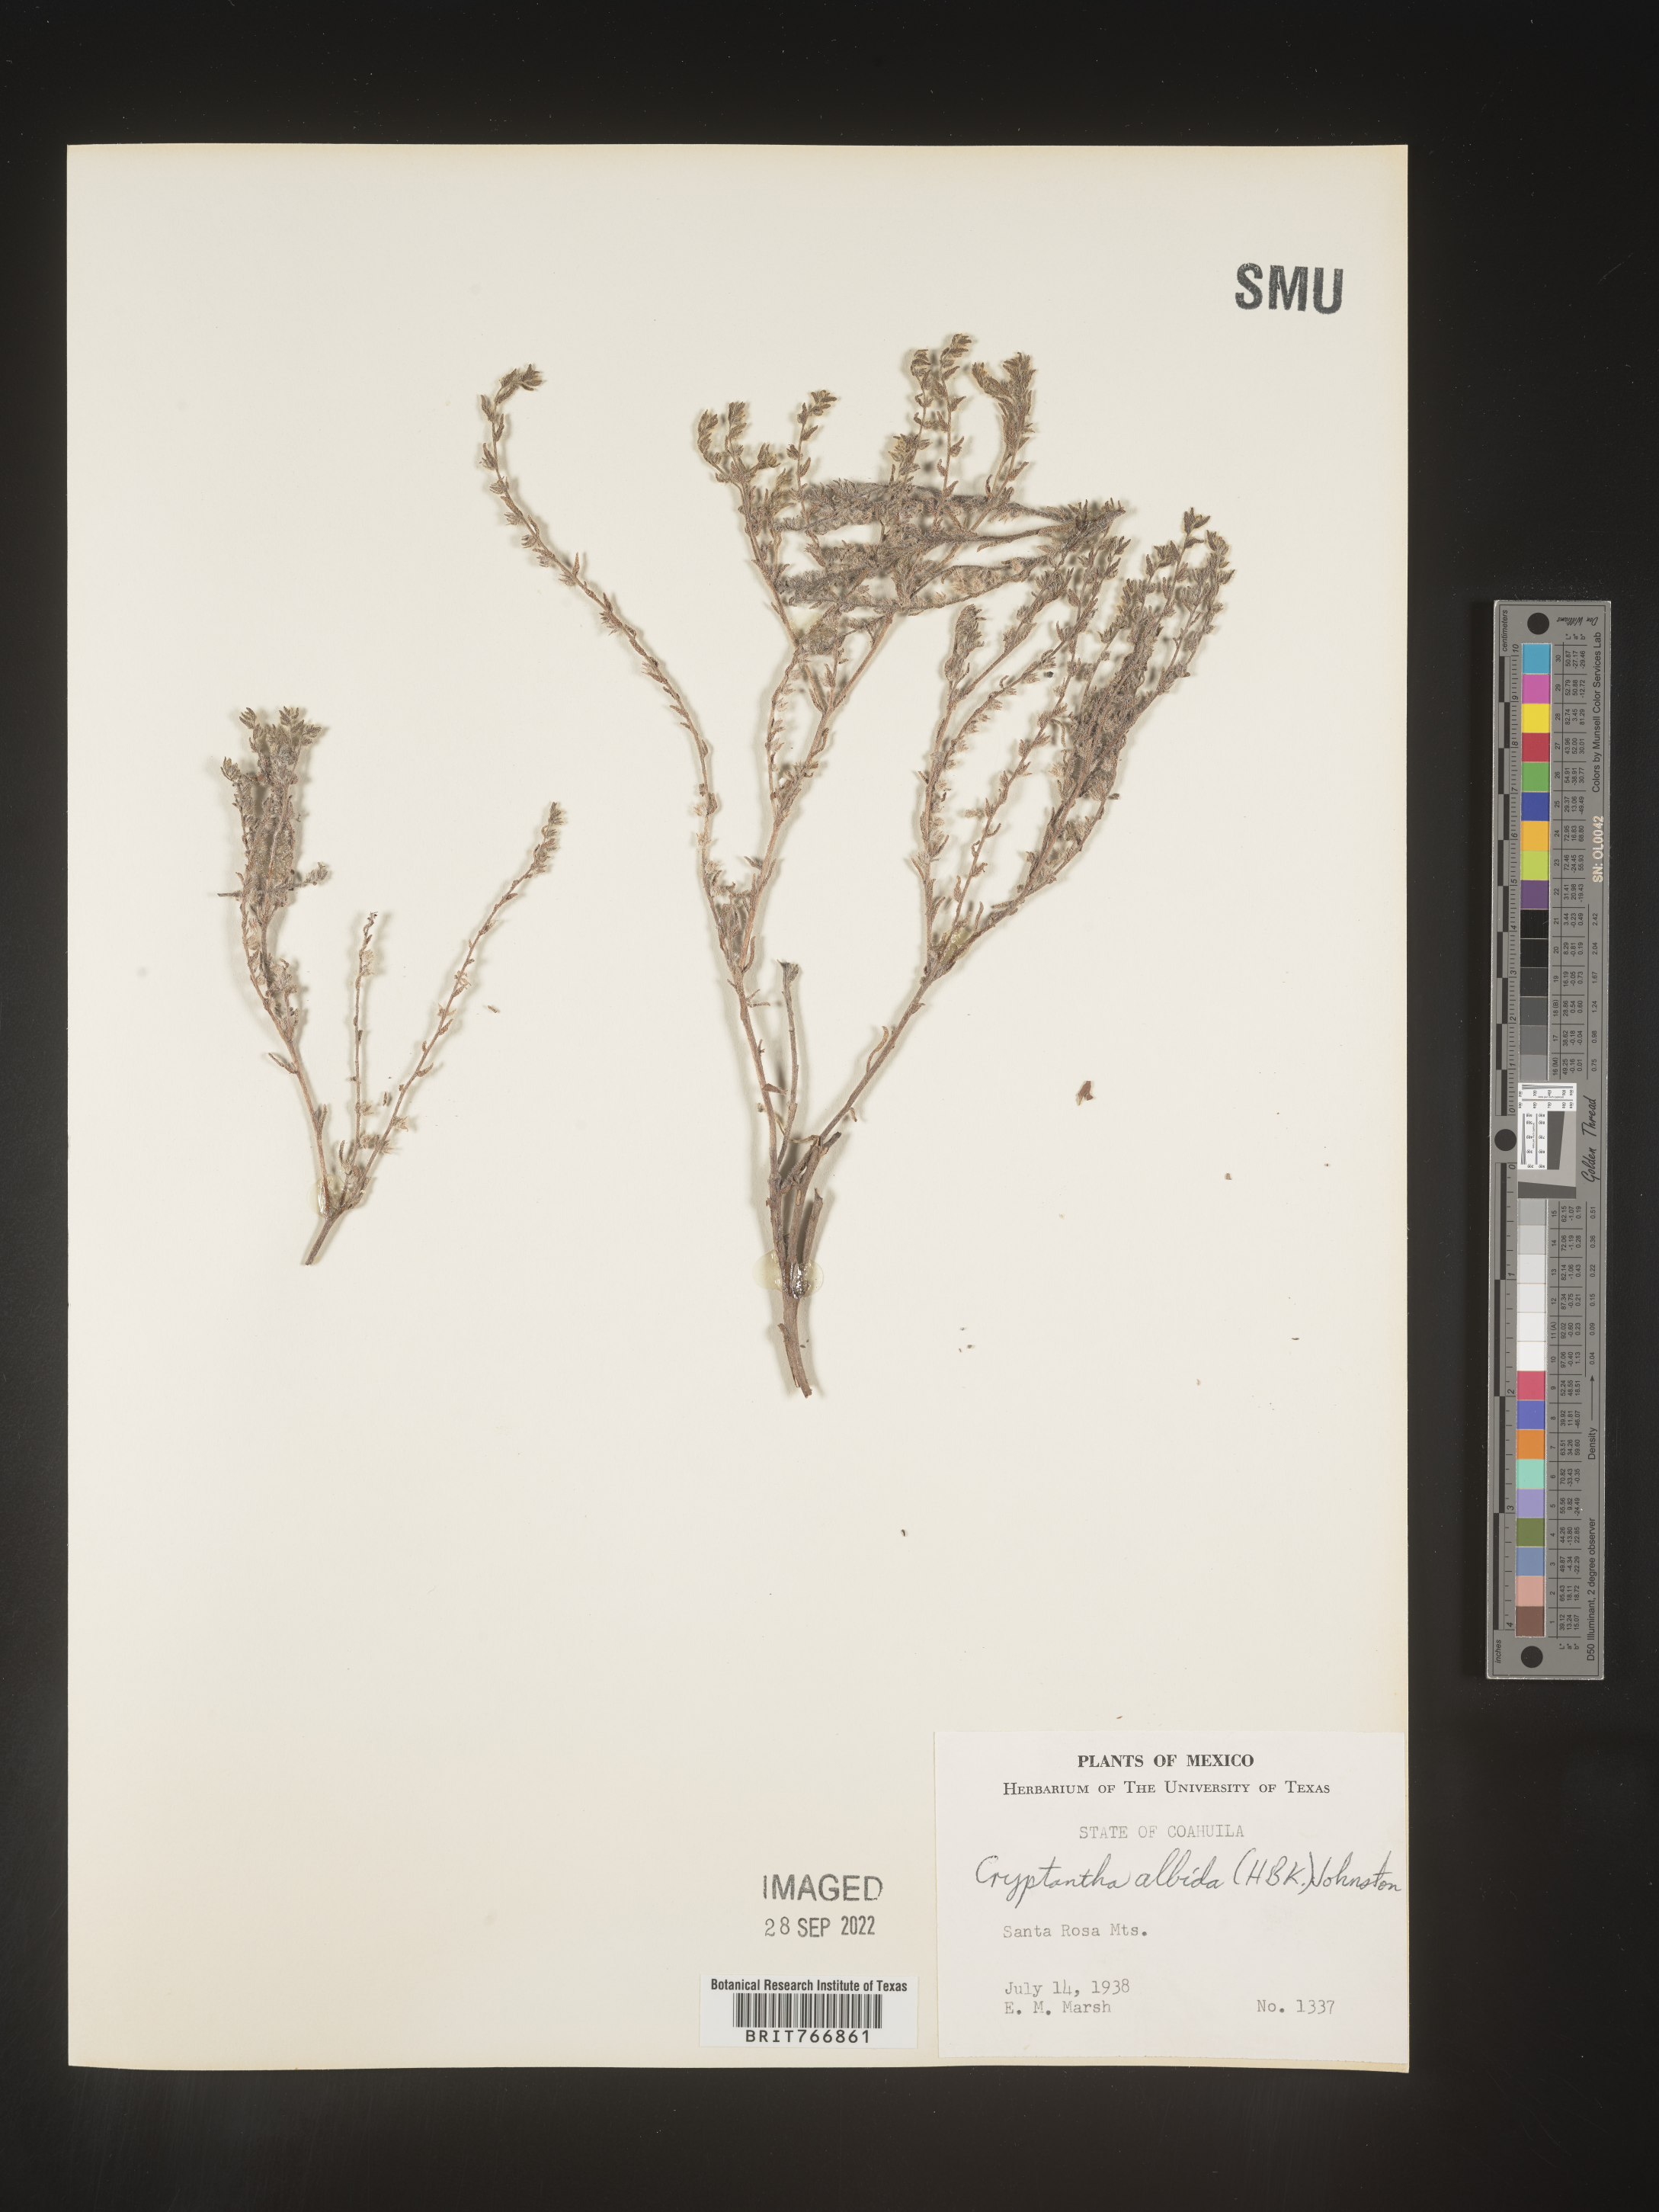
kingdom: Plantae
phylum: Tracheophyta
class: Magnoliopsida
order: Boraginales
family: Boraginaceae
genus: Cryptantha
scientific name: Cryptantha
